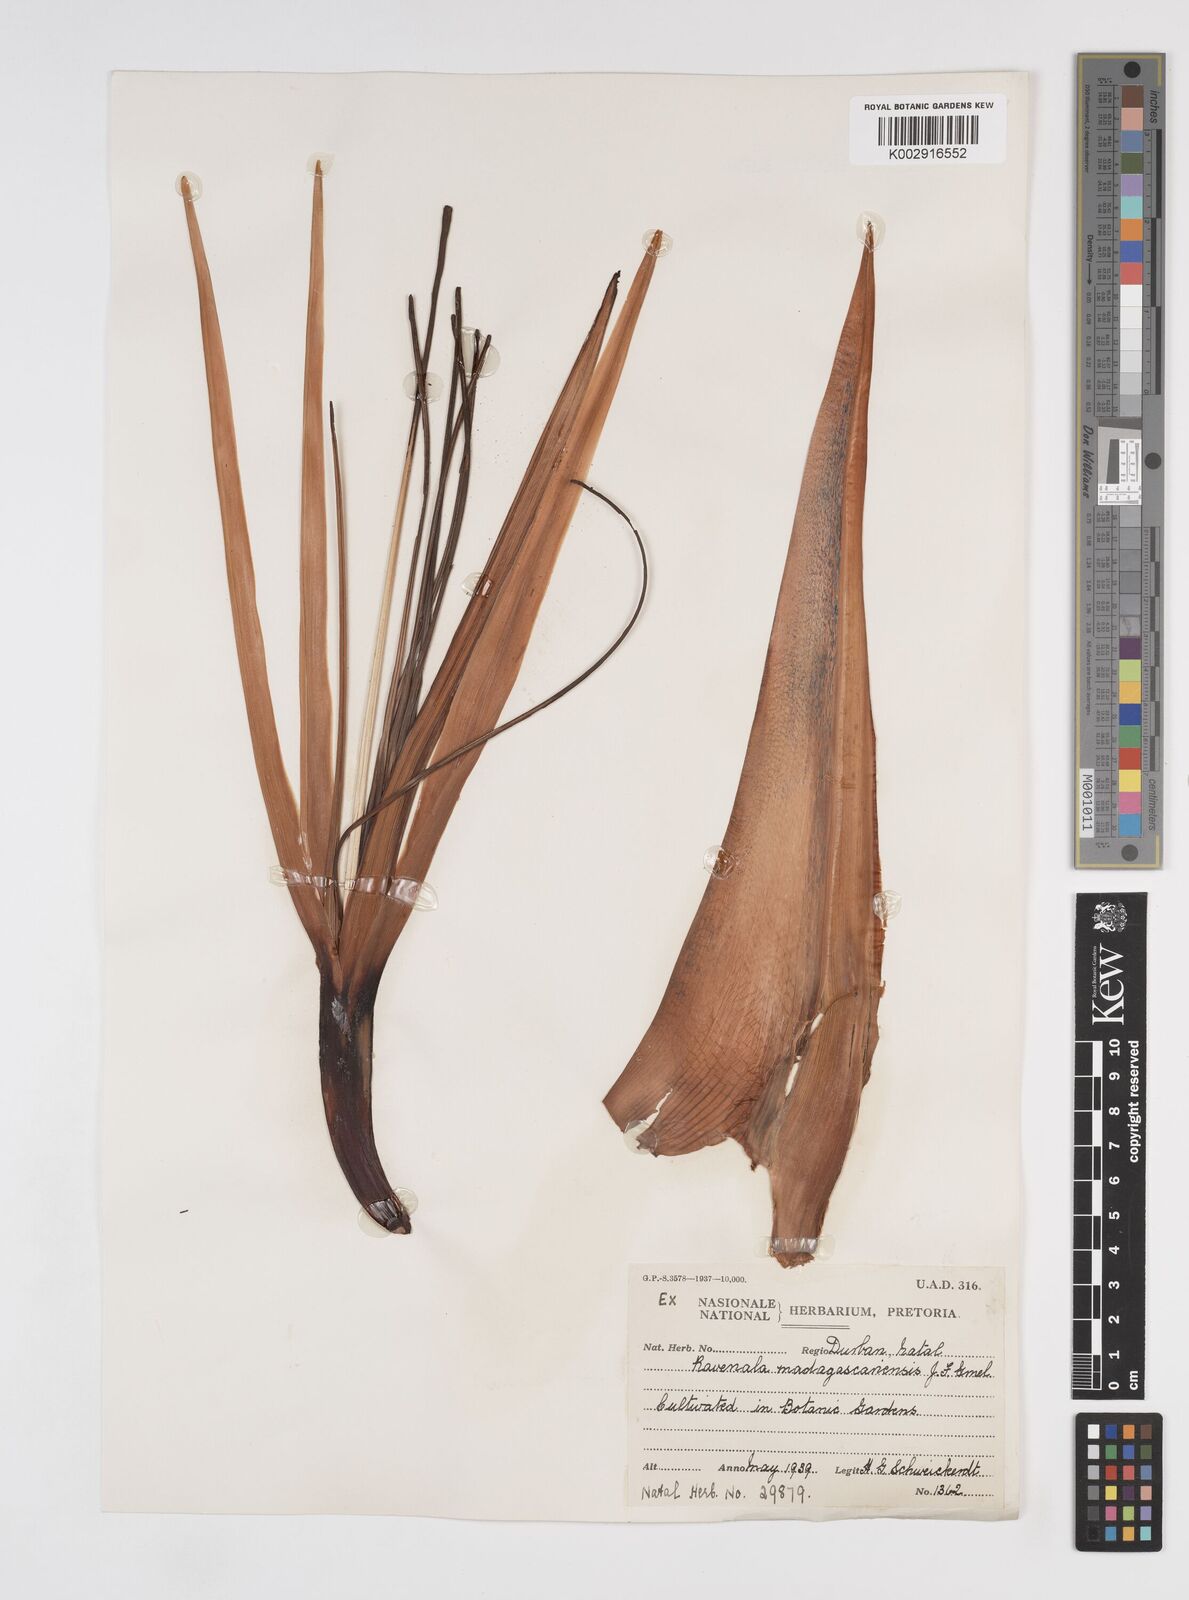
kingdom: Plantae
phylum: Tracheophyta
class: Liliopsida
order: Zingiberales
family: Strelitziaceae
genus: Ravenala
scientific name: Ravenala madagascariensis
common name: Traveler's-palm
